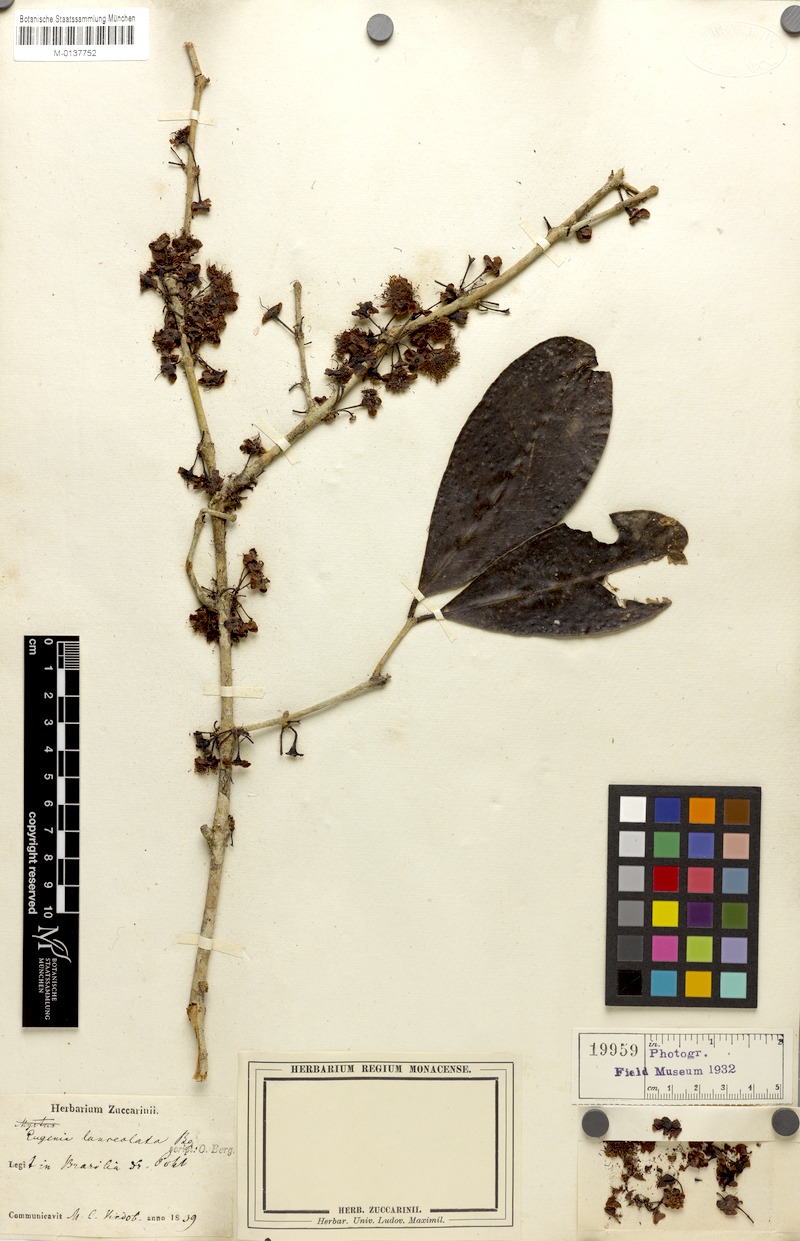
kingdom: Plantae
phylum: Tracheophyta
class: Magnoliopsida
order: Myrtales
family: Myrtaceae
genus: Eugenia
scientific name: Eugenia fusca
